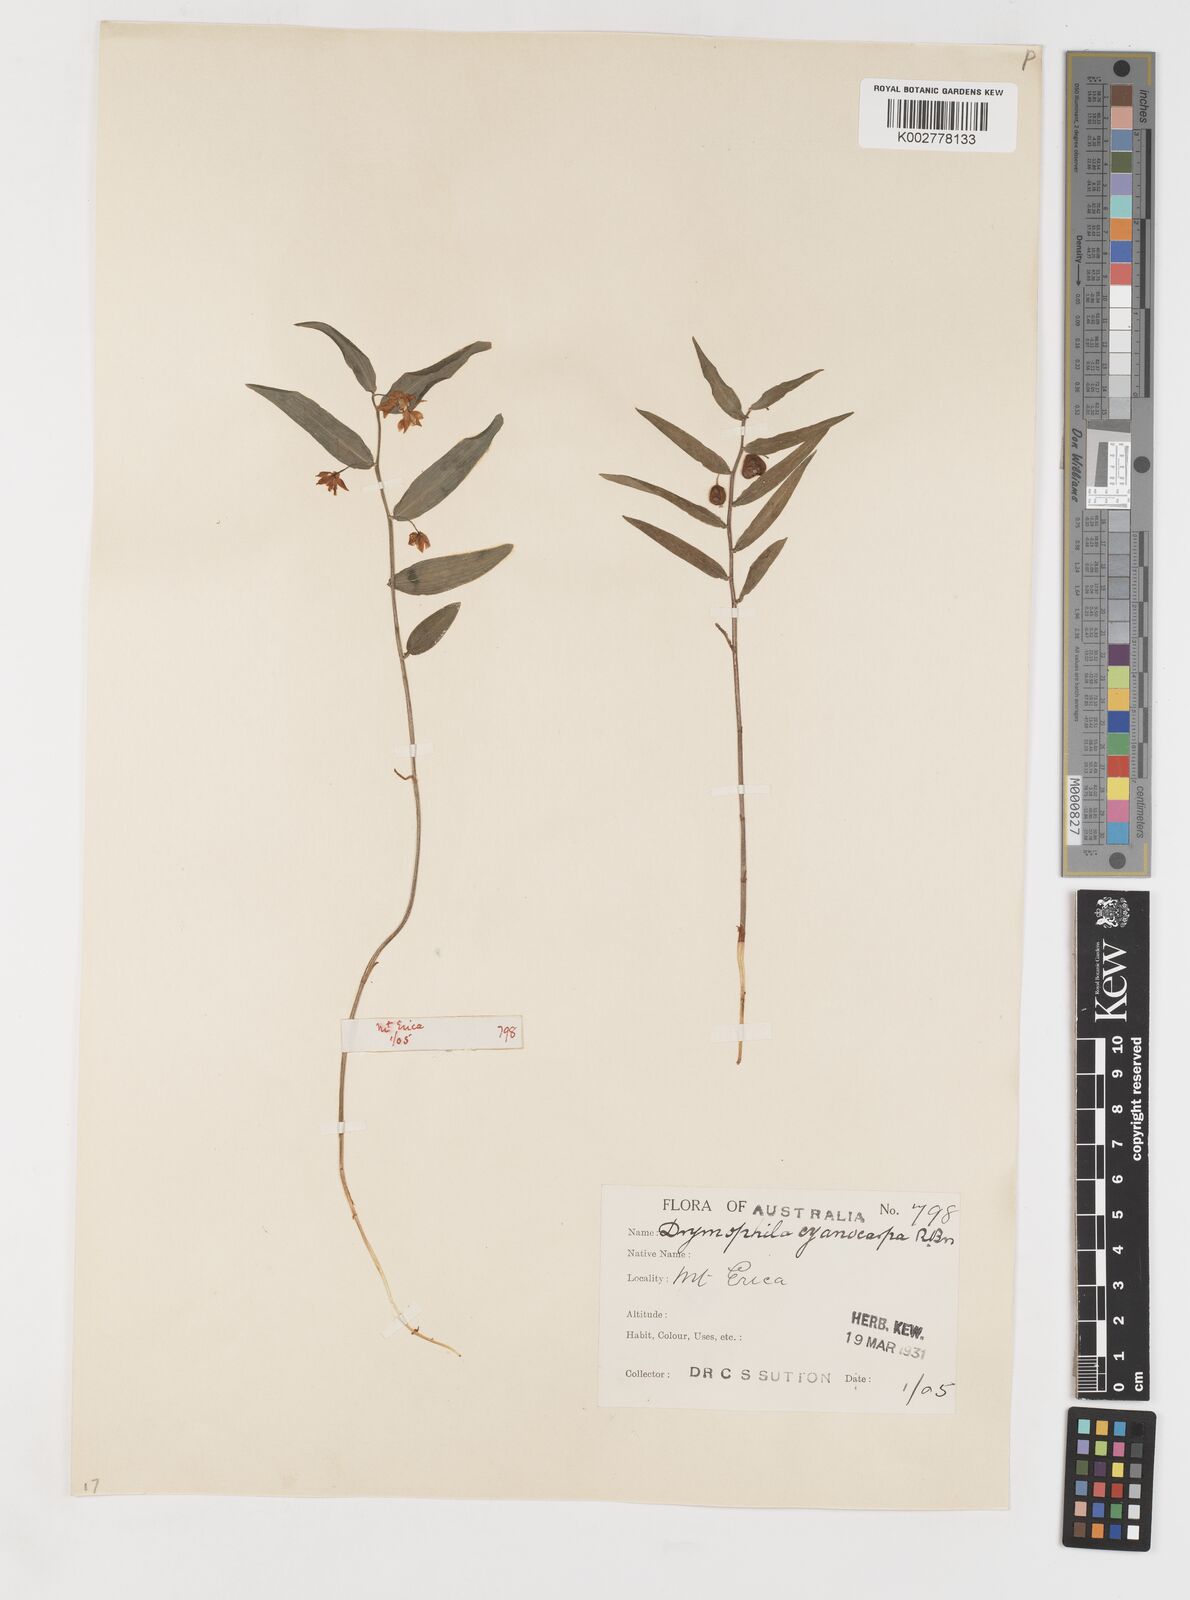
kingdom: Plantae
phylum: Tracheophyta
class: Liliopsida
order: Liliales
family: Alstroemeriaceae
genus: Drymophila
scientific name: Drymophila cyanocarpa
